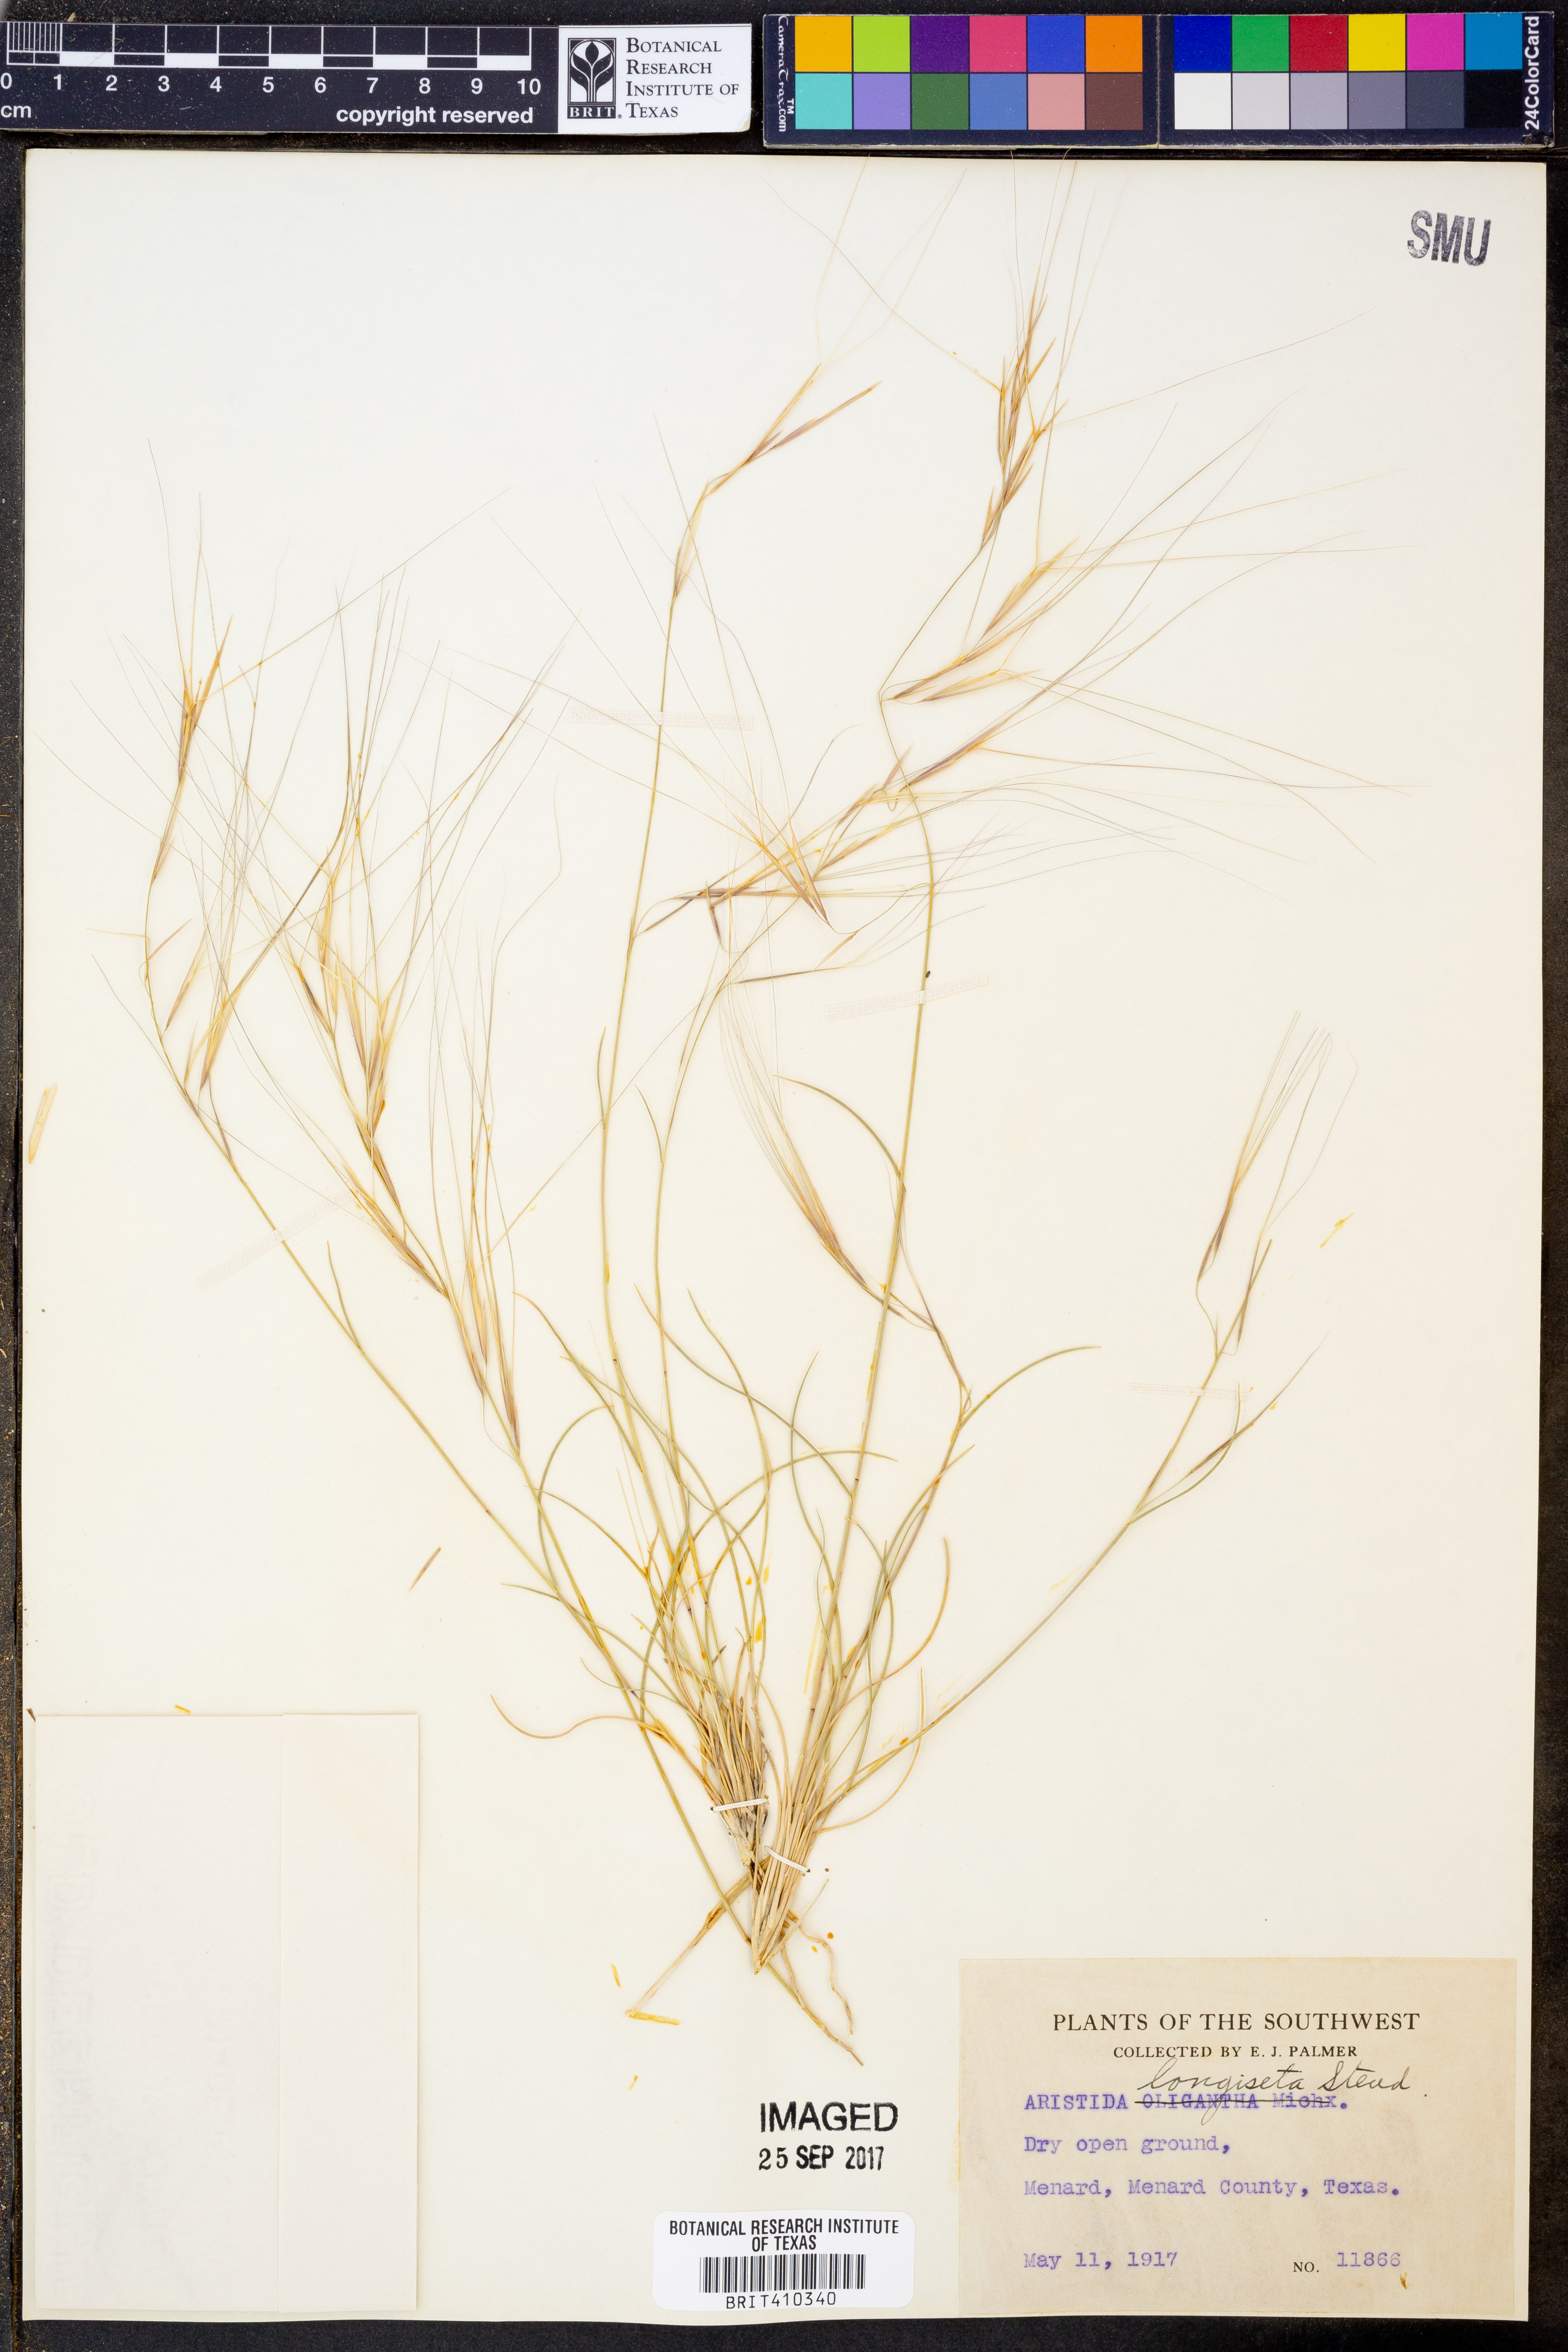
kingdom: Plantae
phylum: Tracheophyta
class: Liliopsida
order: Poales
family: Poaceae
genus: Aristida
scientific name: Aristida longiseta
